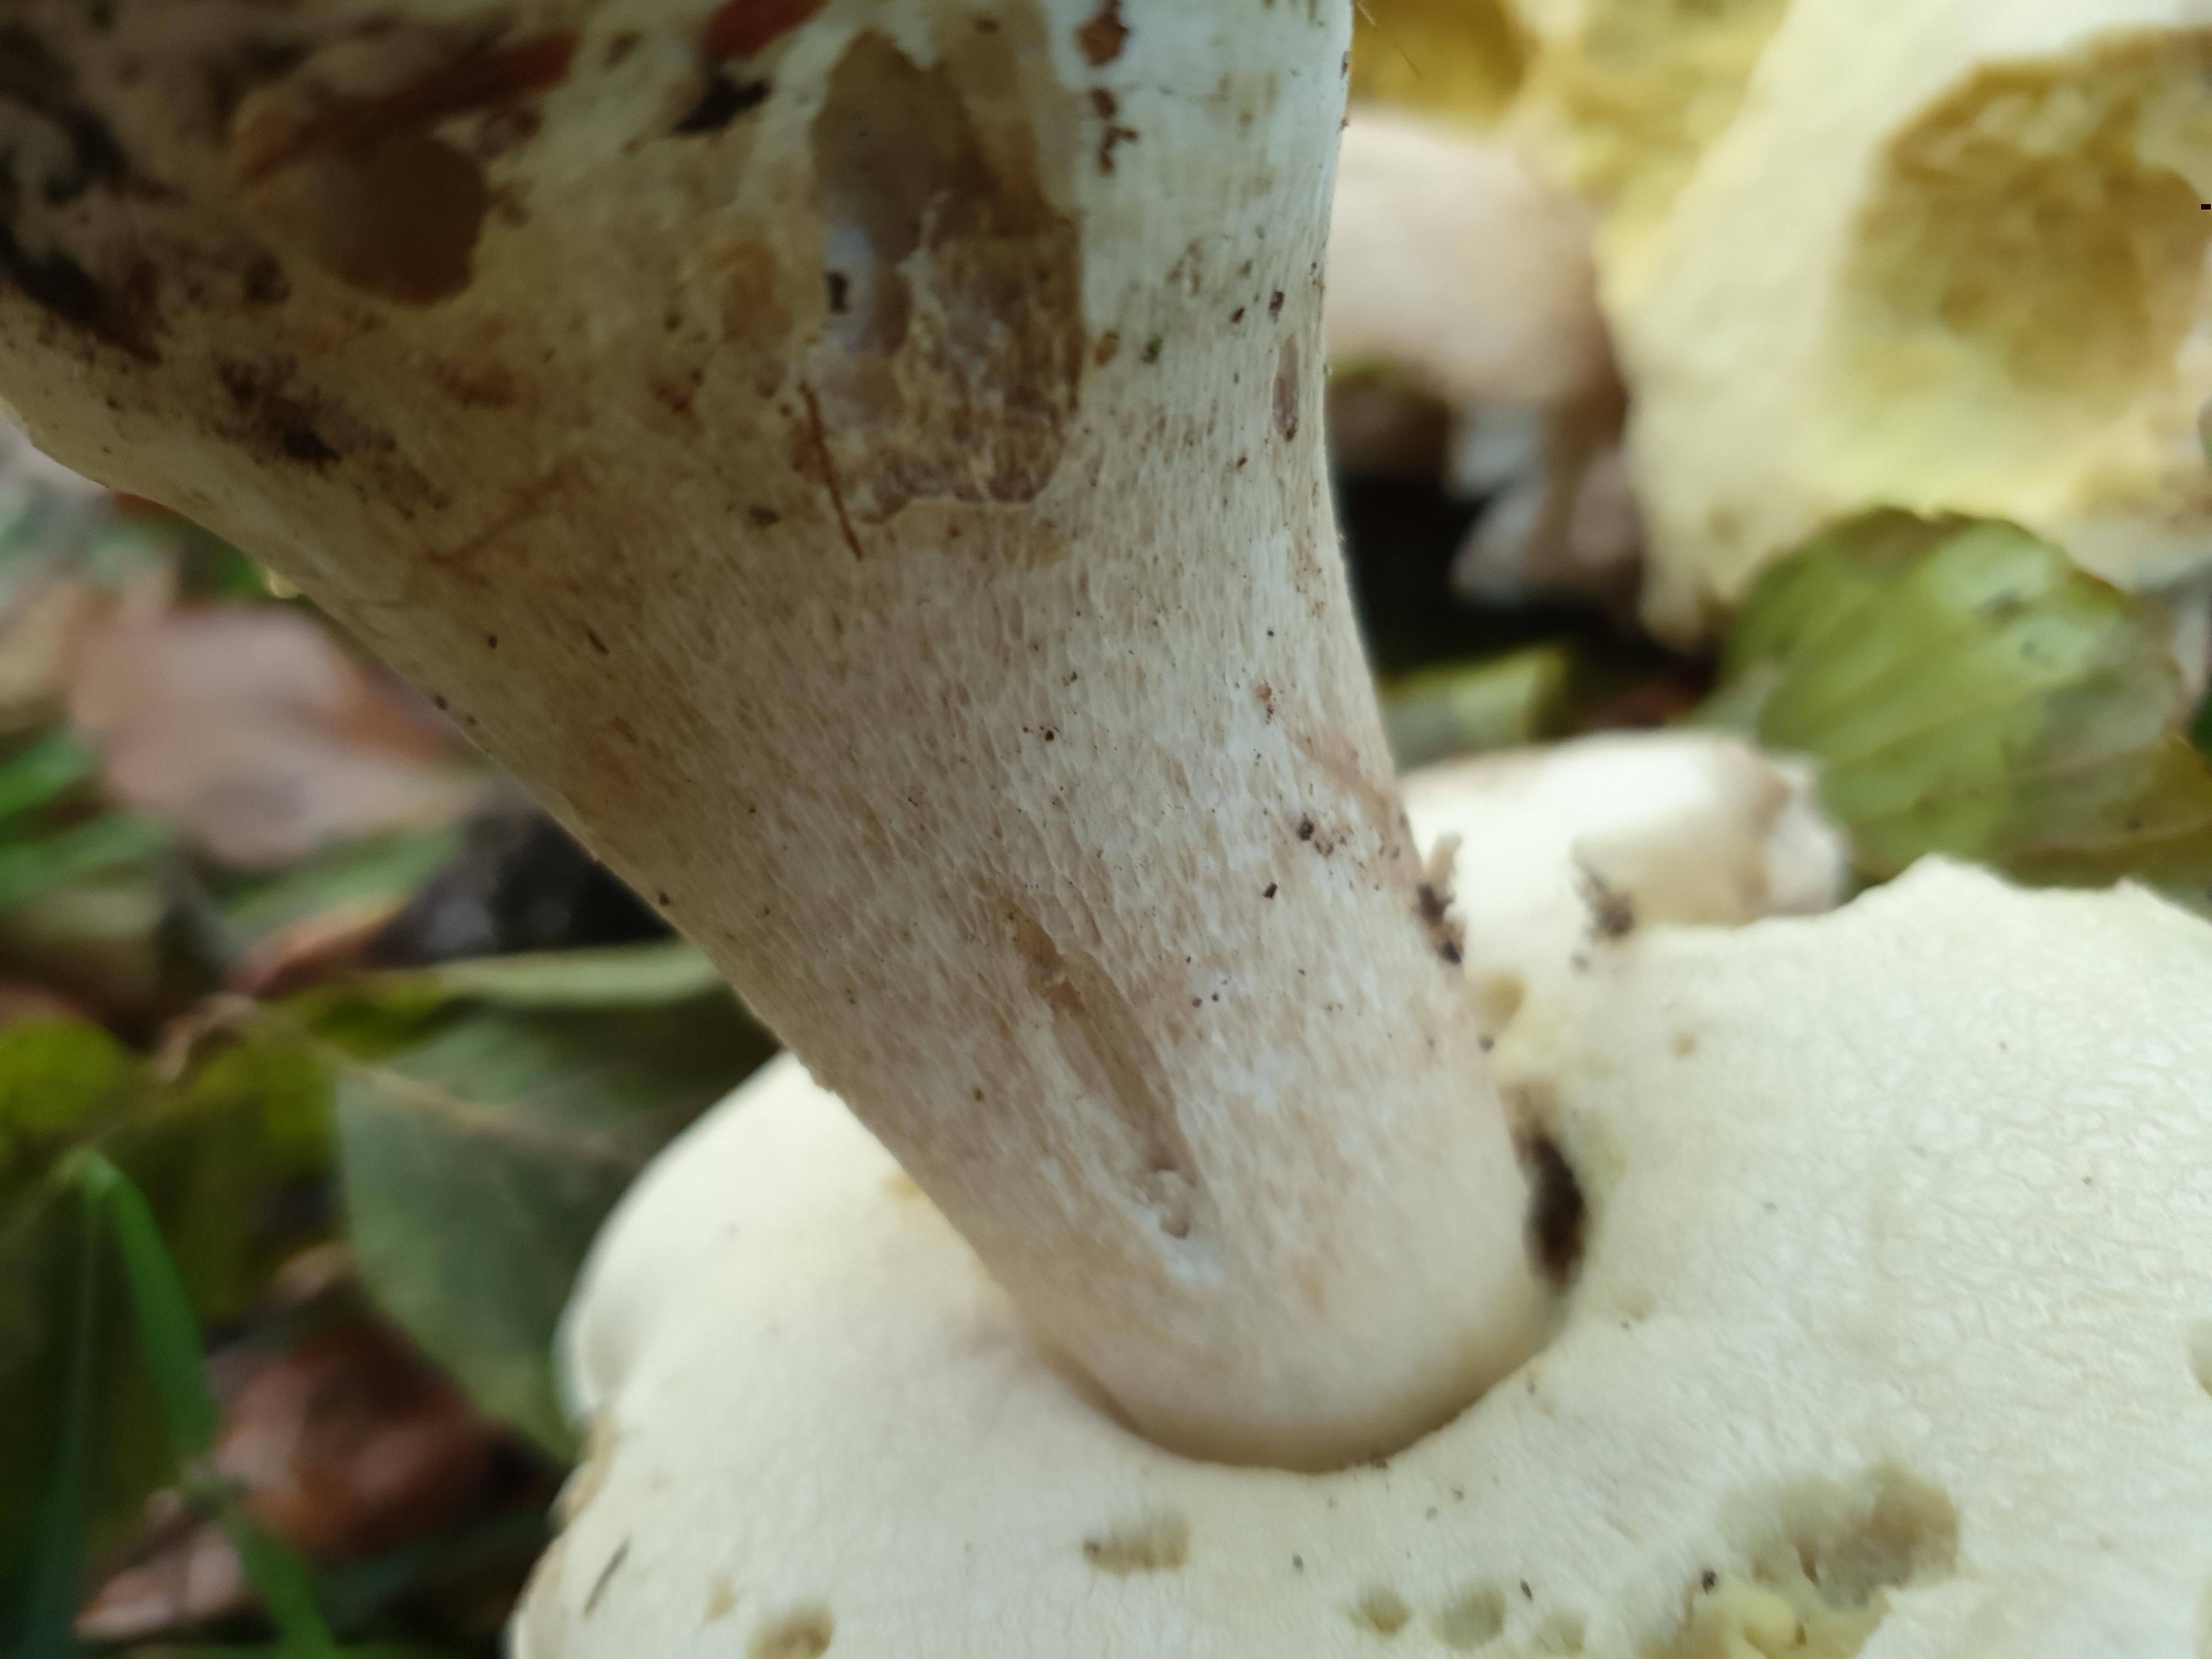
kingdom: Fungi
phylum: Basidiomycota
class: Agaricomycetes
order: Boletales
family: Boletaceae
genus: Boletus
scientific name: Boletus edulis
